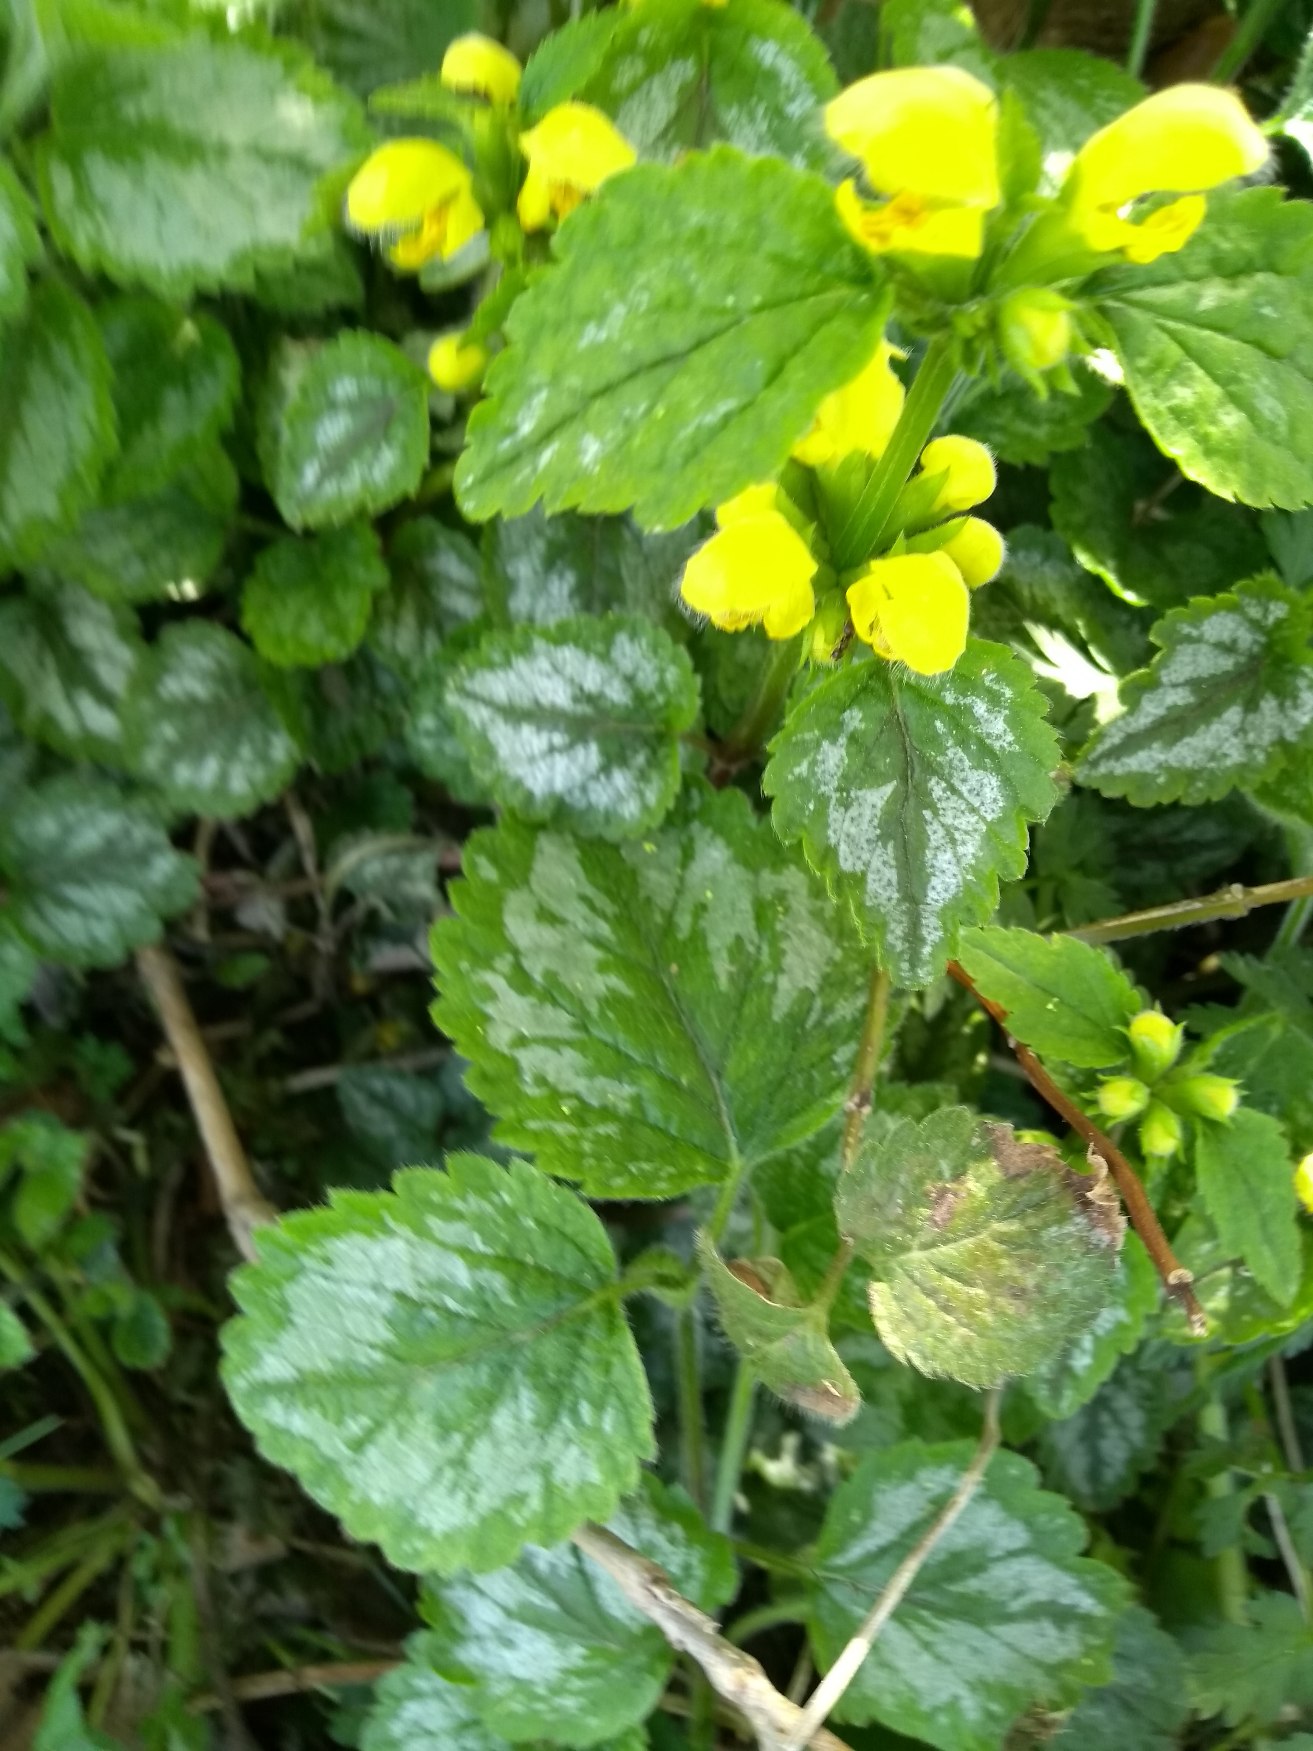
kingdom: Plantae
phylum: Tracheophyta
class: Magnoliopsida
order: Lamiales
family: Lamiaceae
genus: Lamium
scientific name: Lamium galeobdolon
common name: Have-guldnælde
